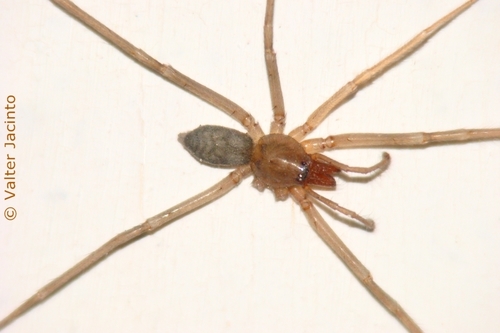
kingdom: Animalia
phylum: Arthropoda
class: Arachnida
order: Araneae
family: Liocranidae
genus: Liocranum
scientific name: Liocranum
